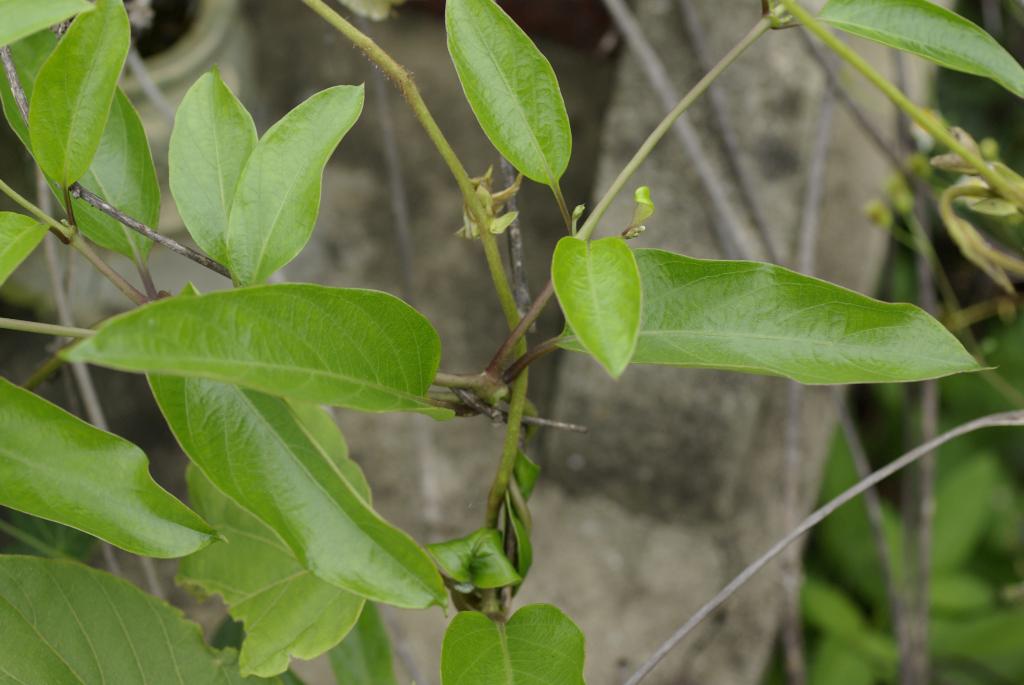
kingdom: Plantae
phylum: Tracheophyta
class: Magnoliopsida
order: Gentianales
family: Rubiaceae
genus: Paederia
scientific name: Paederia foetida
